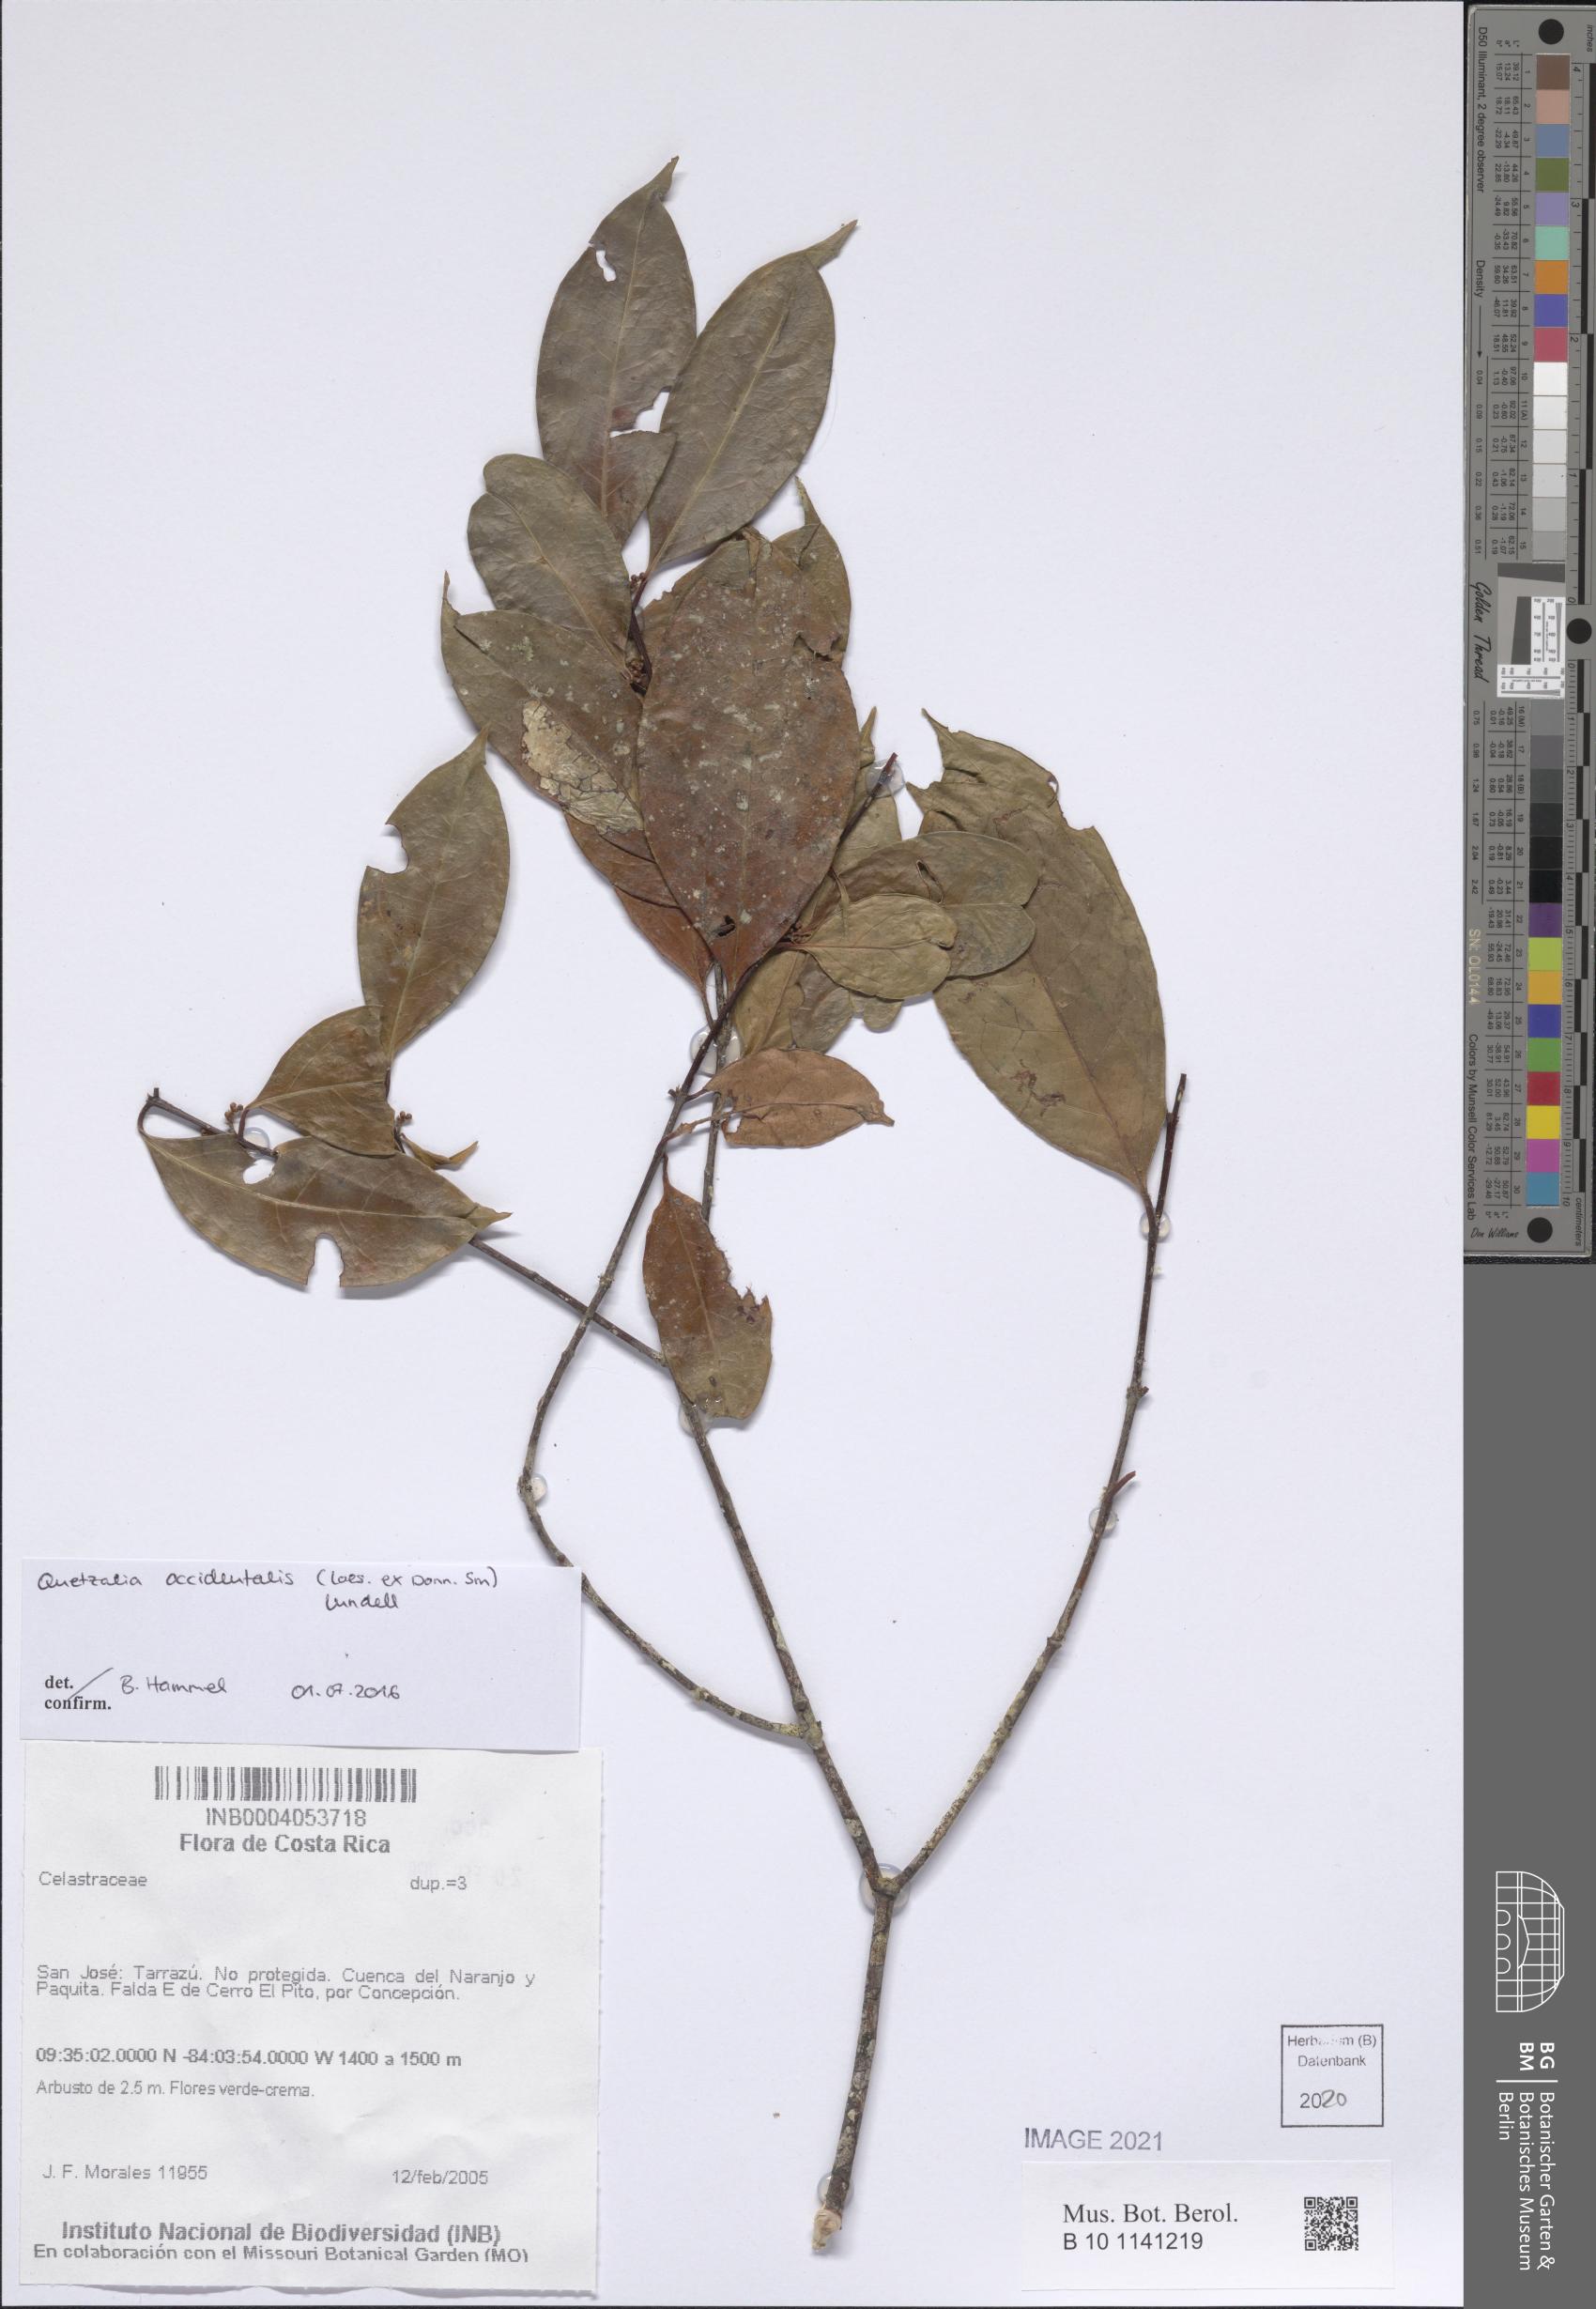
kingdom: Plantae
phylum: Tracheophyta
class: Magnoliopsida
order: Celastrales
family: Celastraceae
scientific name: Celastraceae
